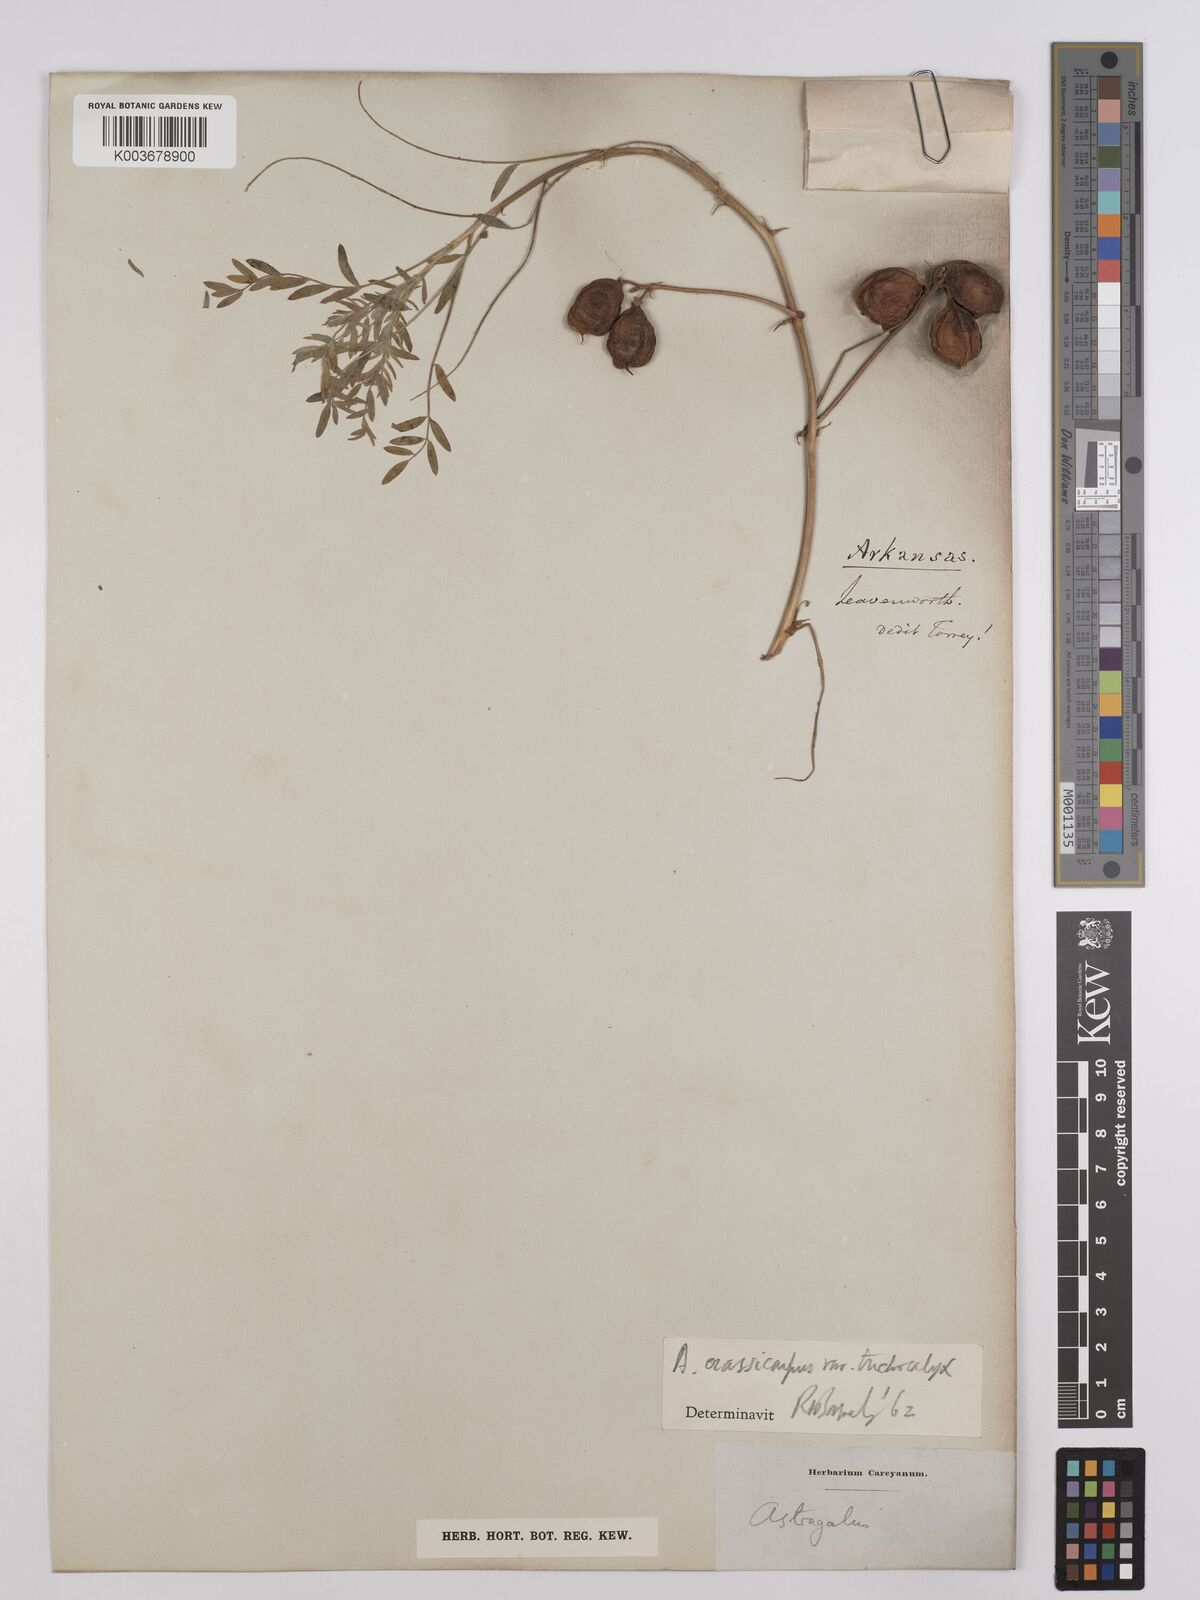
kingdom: Plantae
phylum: Tracheophyta
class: Magnoliopsida
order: Fabales
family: Fabaceae
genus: Astragalus
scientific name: Astragalus plattensis
